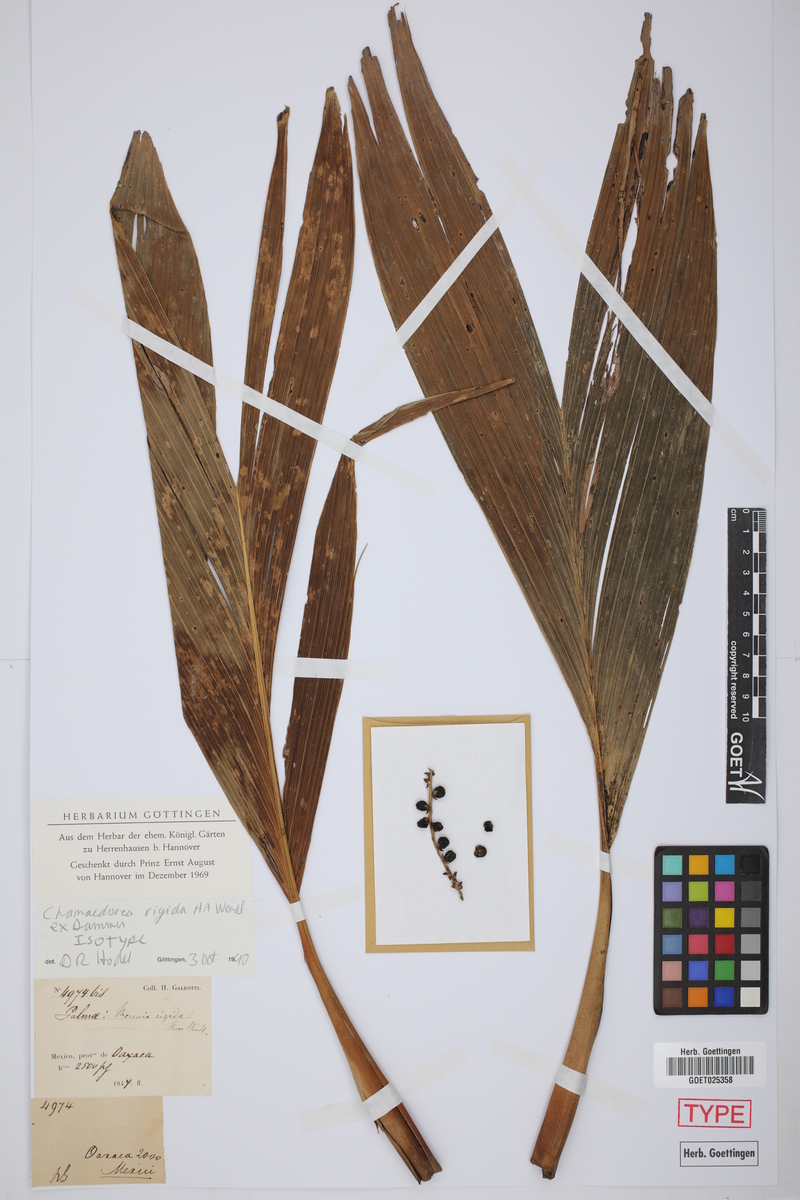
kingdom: Plantae
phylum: Tracheophyta
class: Liliopsida
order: Arecales
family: Arecaceae
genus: Chamaedorea
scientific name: Chamaedorea rigida
